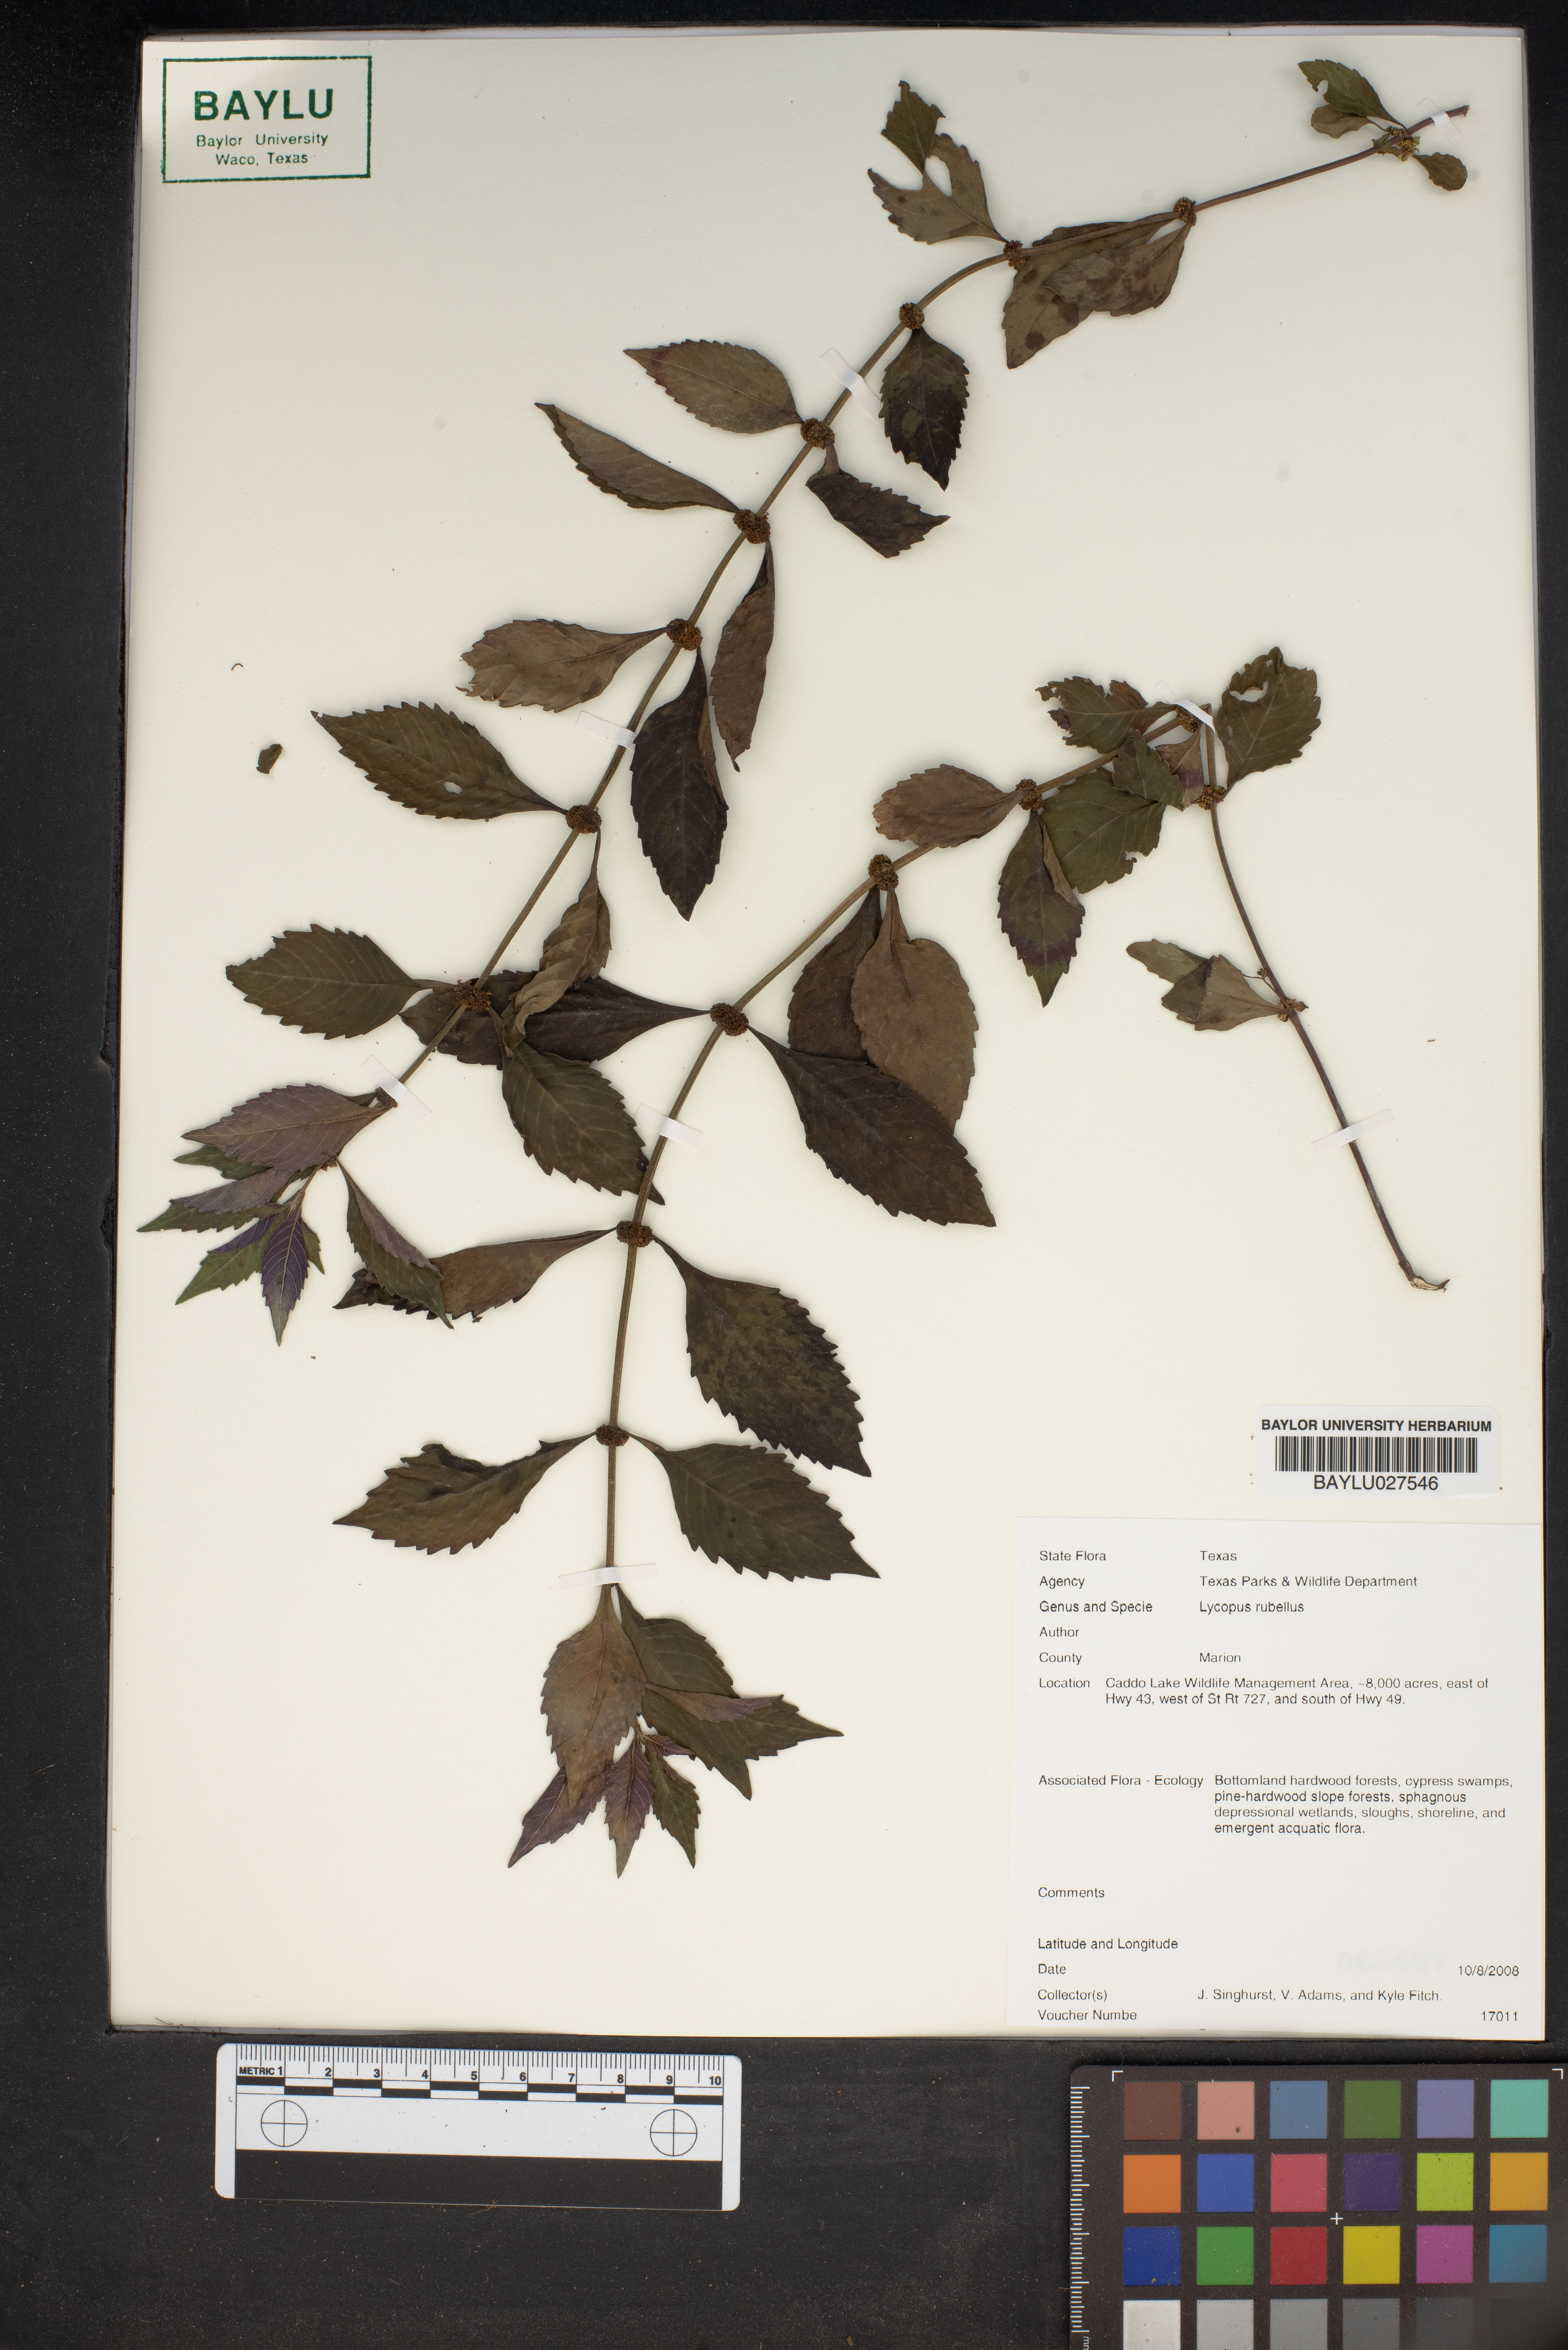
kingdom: Plantae
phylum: Tracheophyta
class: Magnoliopsida
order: Lamiales
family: Lamiaceae
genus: Lycopus
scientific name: Lycopus rubellus
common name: Stalked bugleweed
